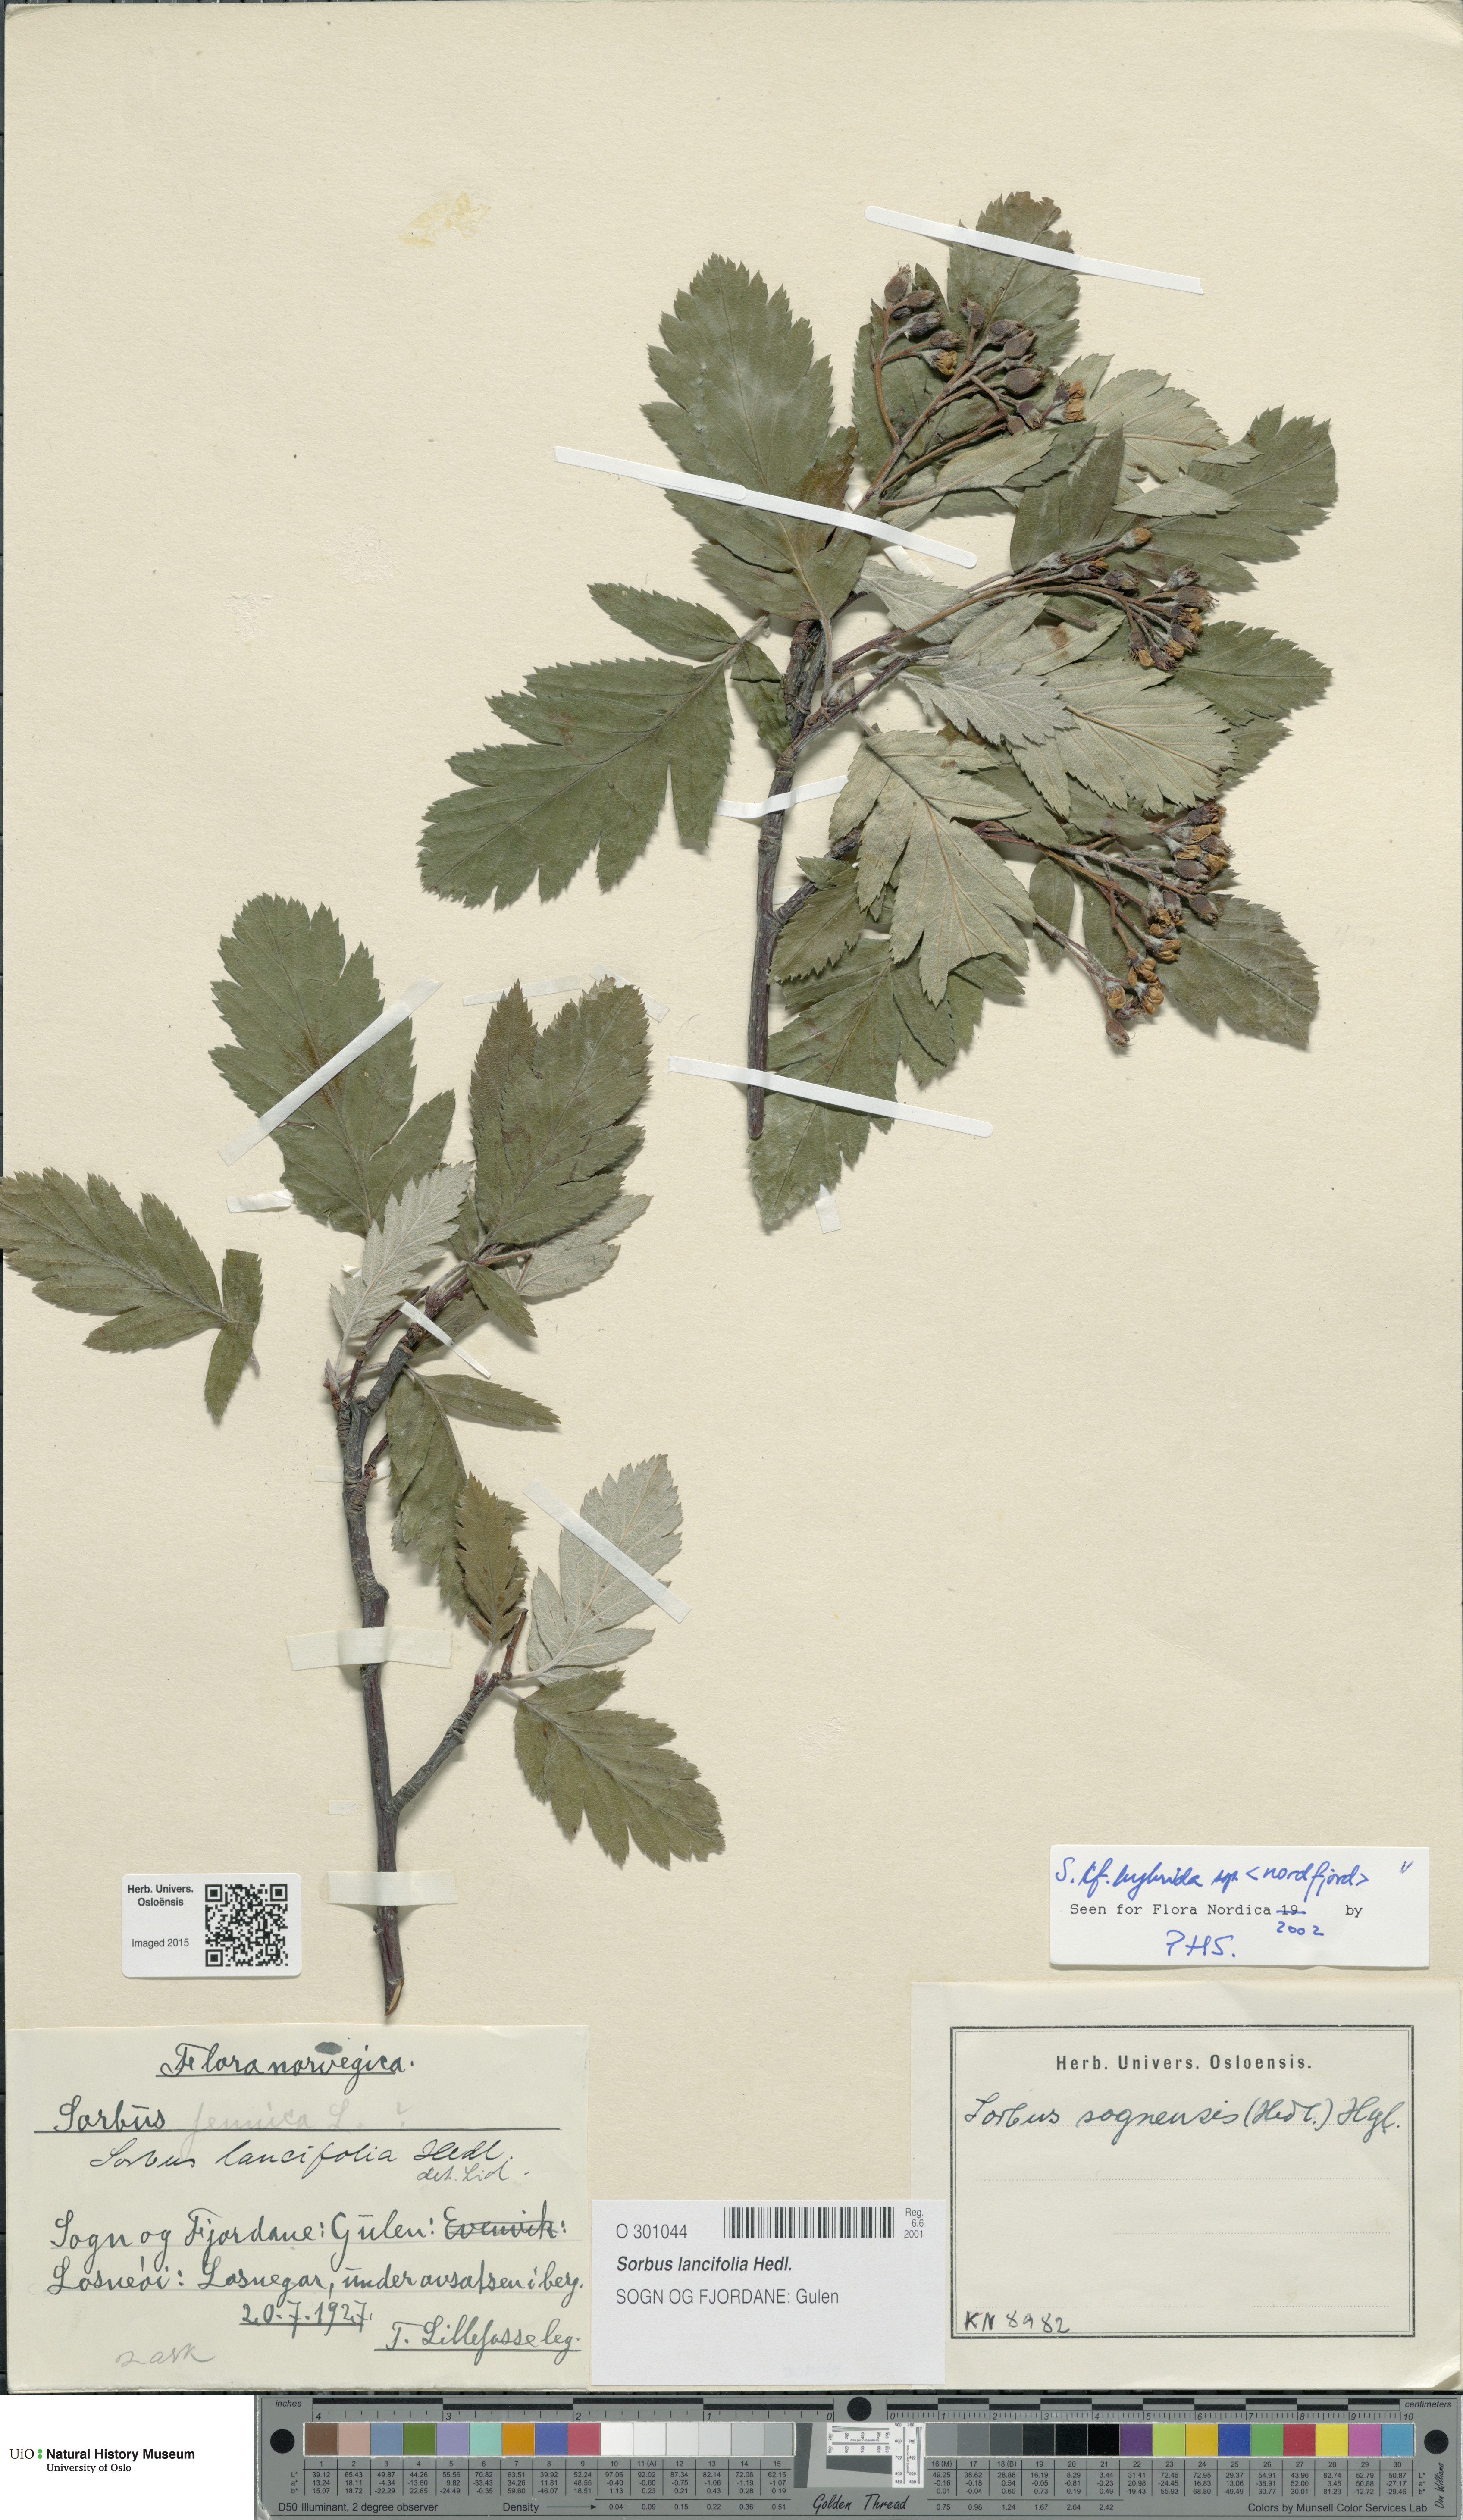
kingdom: Plantae
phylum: Tracheophyta
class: Magnoliopsida
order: Rosales
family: Rosaceae
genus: Hedlundia
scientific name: Hedlundia hybrida
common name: Swedish service-tree
